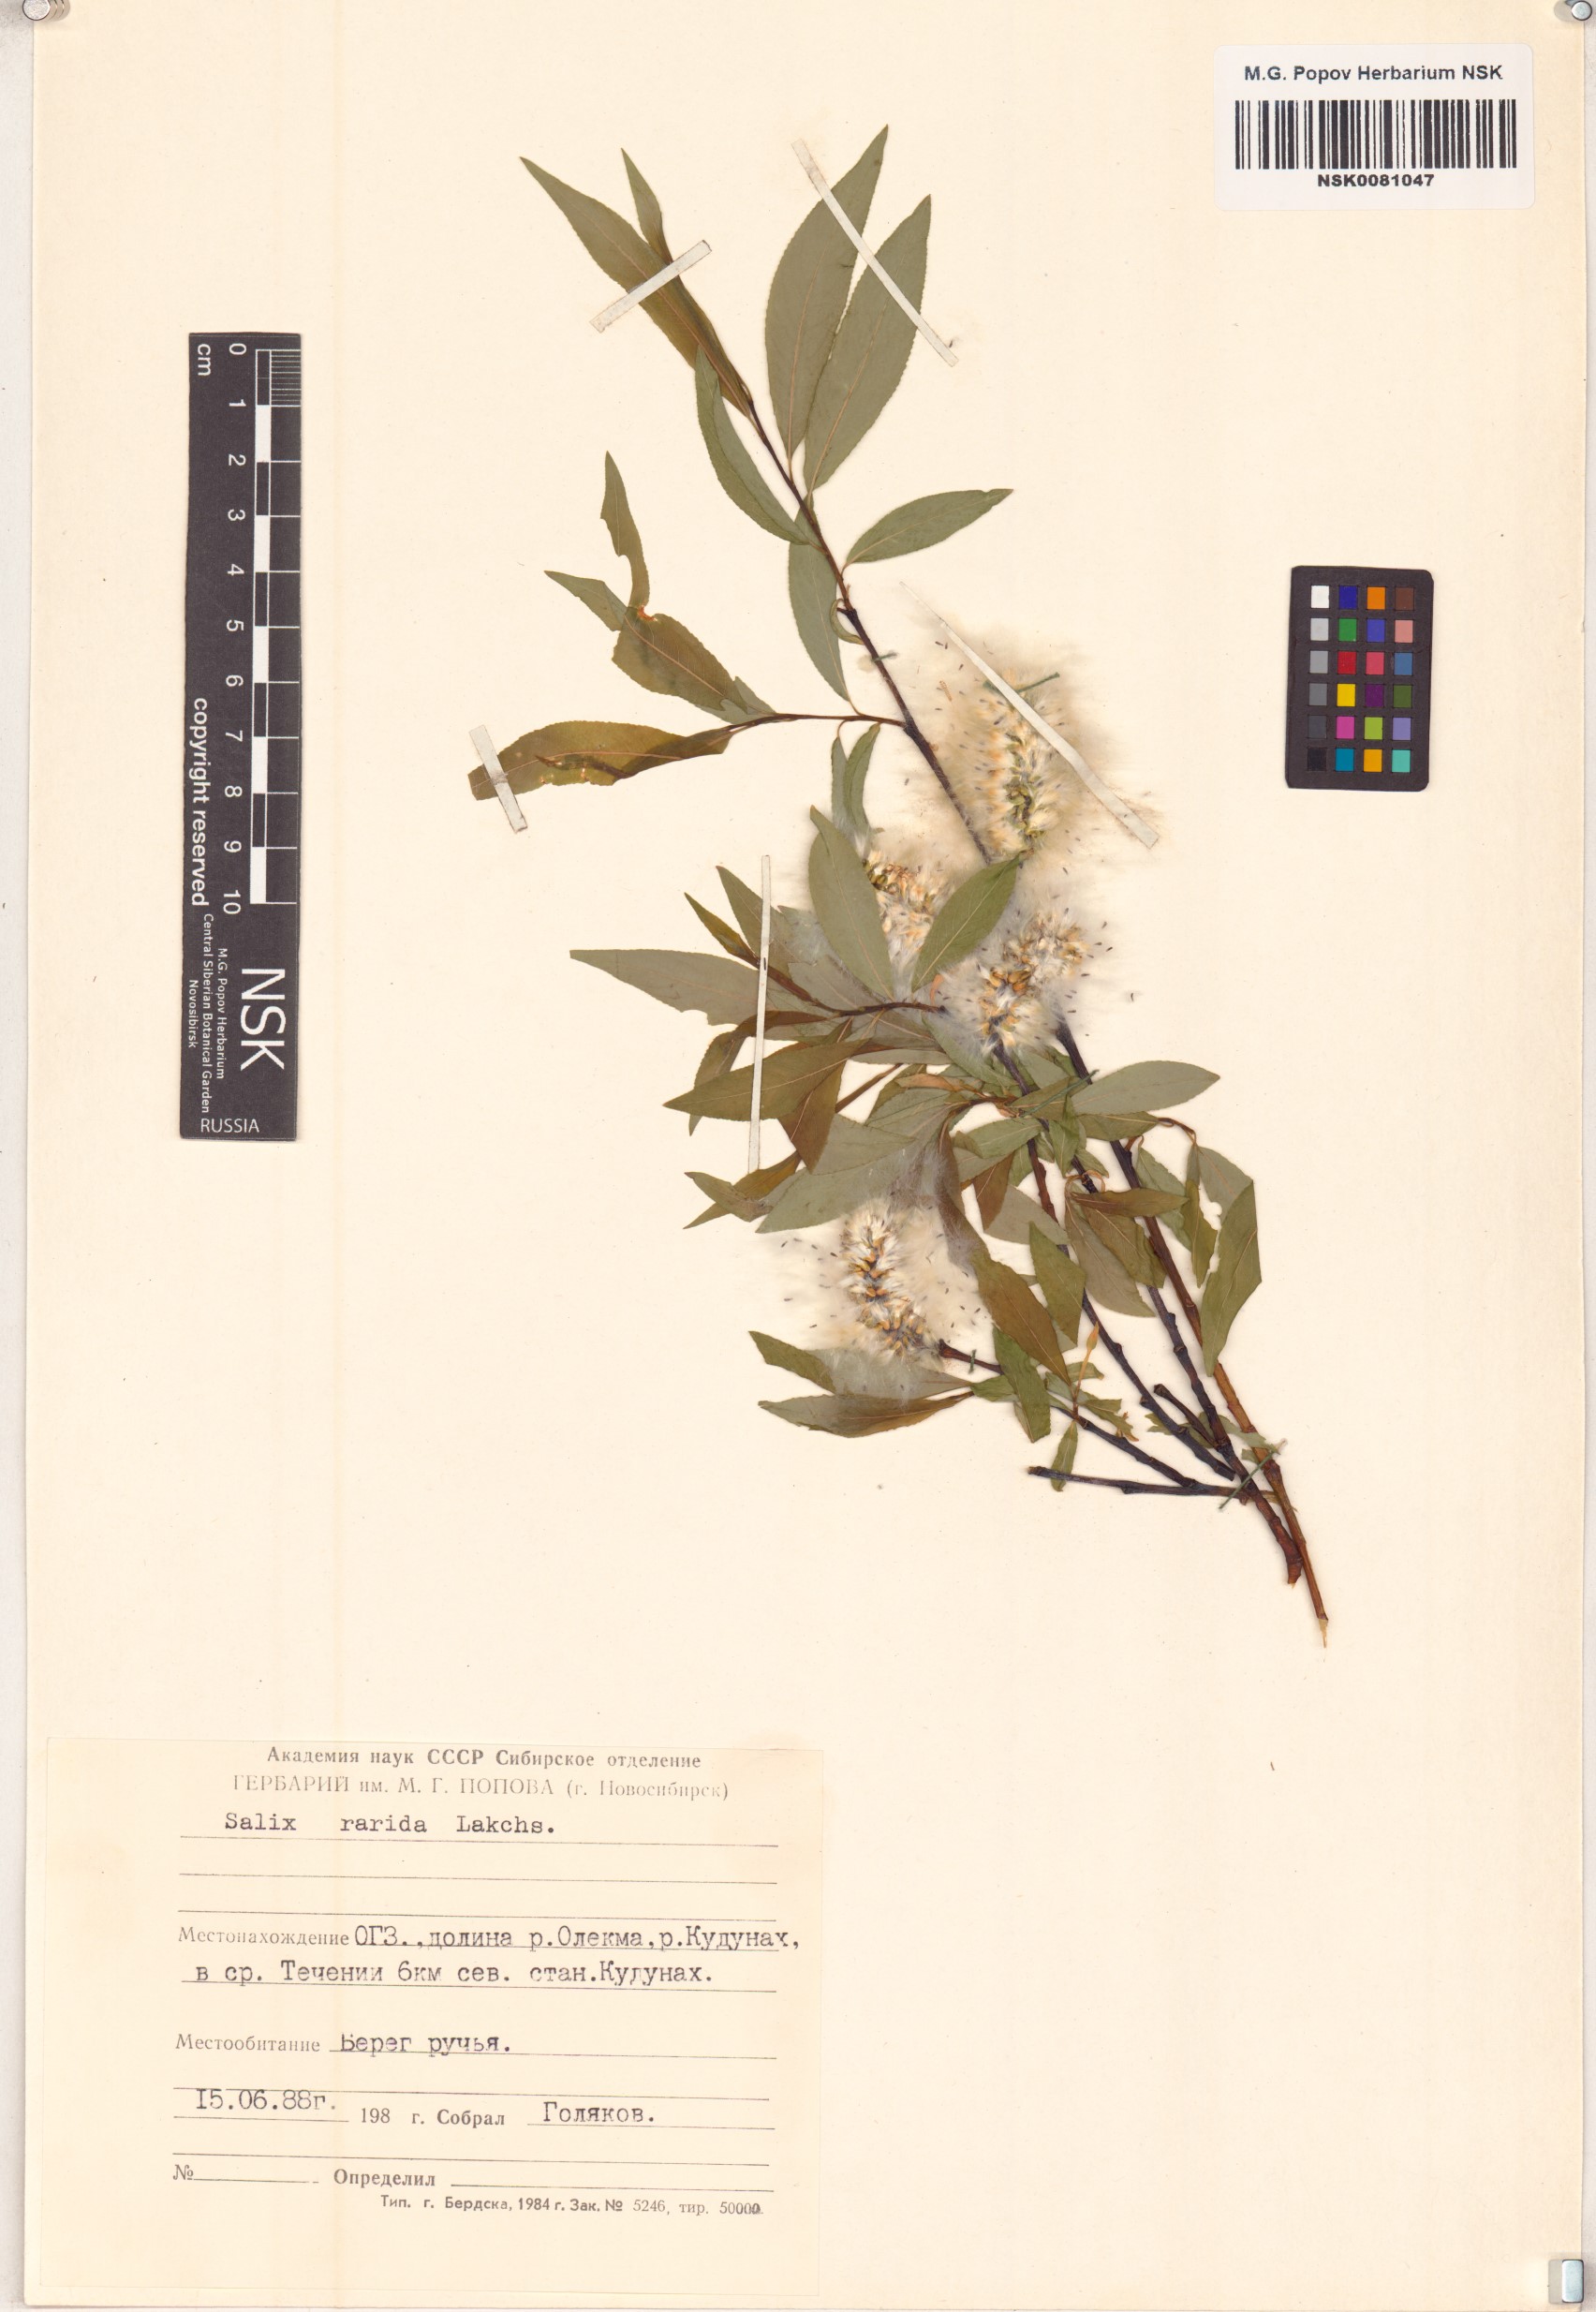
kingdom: Plantae
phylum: Tracheophyta
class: Magnoliopsida
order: Malpighiales
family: Salicaceae
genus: Salix
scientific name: Salix rorida
